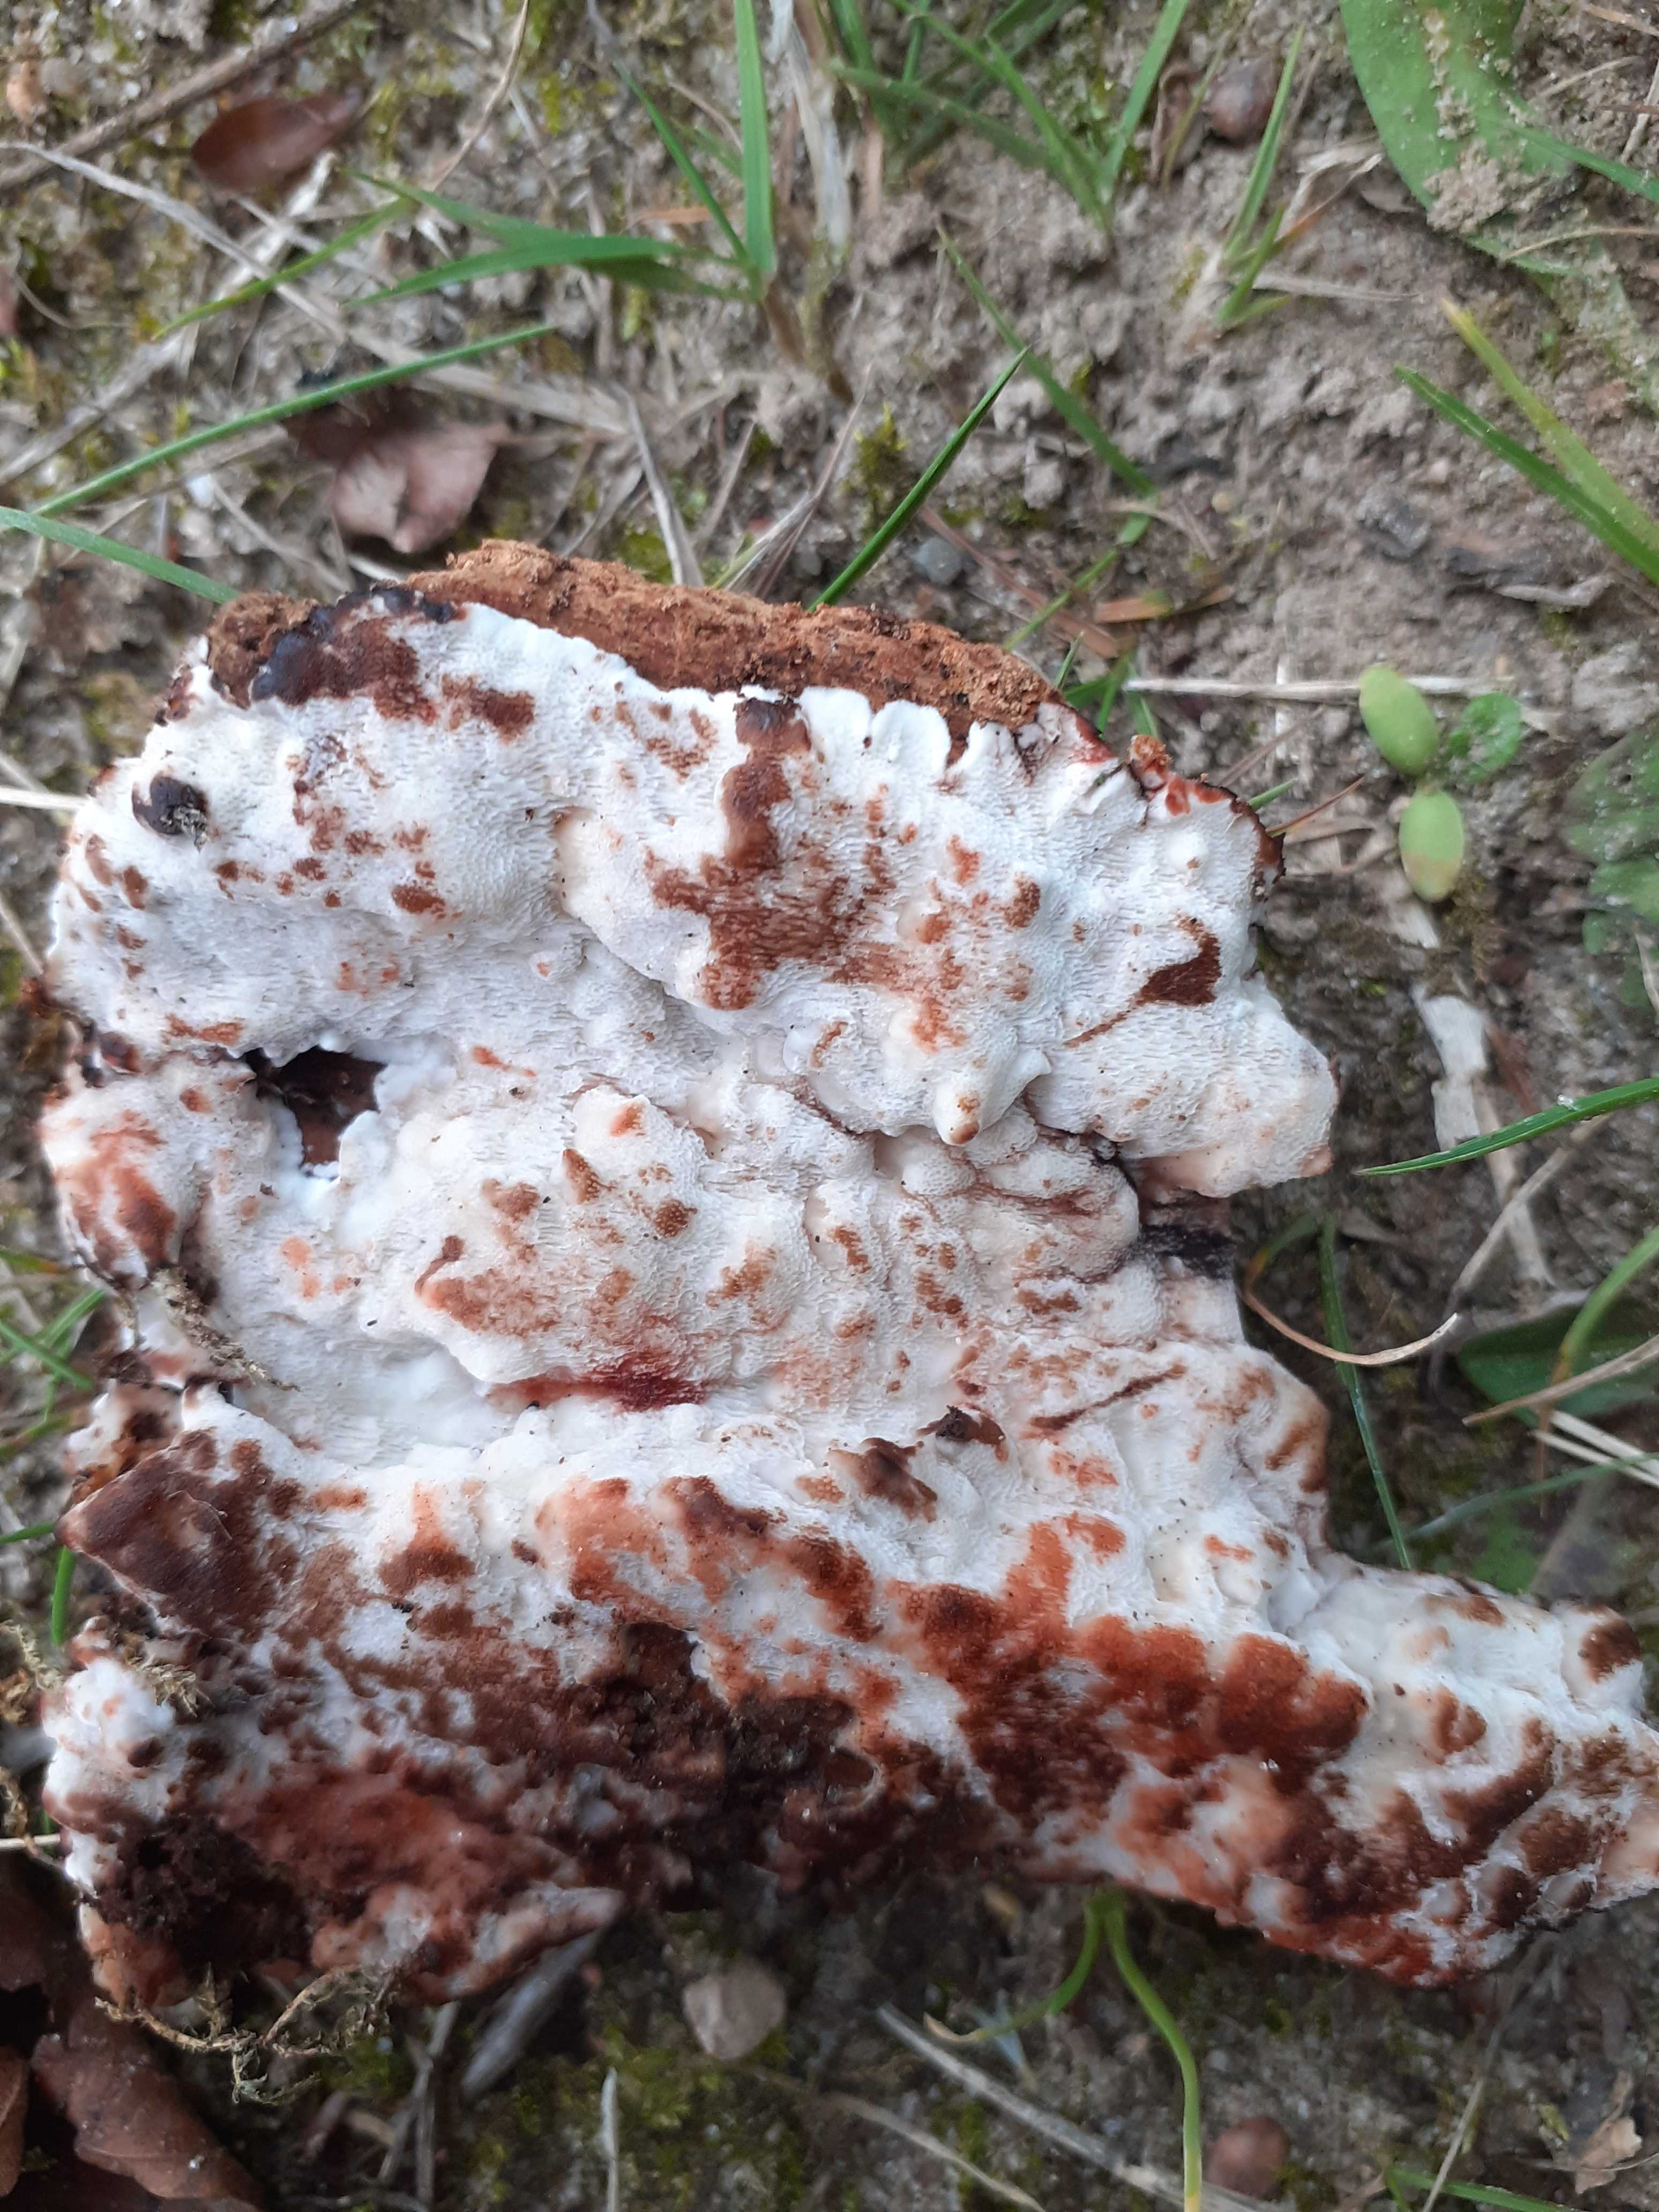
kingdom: Fungi
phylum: Basidiomycota
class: Agaricomycetes
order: Polyporales
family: Meruliaceae
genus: Physisporinus
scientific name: Physisporinus vitreus
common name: mastesvamp
